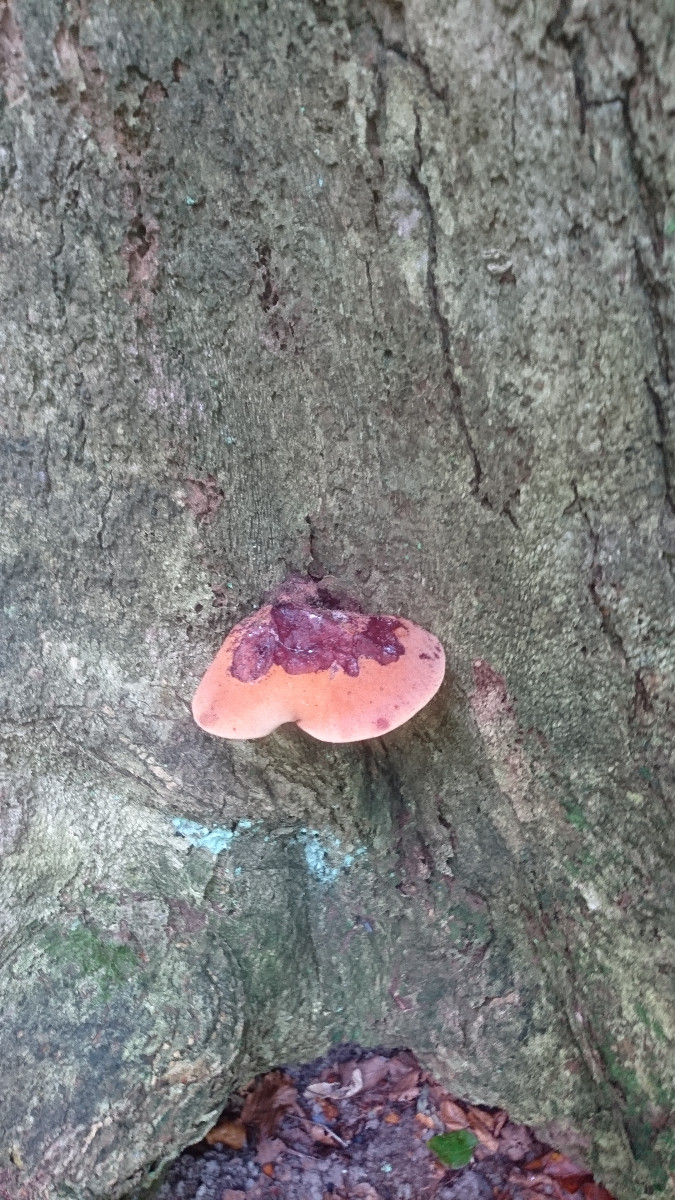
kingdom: Fungi
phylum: Basidiomycota
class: Agaricomycetes
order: Agaricales
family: Fistulinaceae
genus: Fistulina
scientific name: Fistulina hepatica
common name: oksetunge
